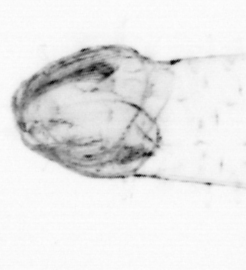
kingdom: Animalia
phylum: Chaetognatha
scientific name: Chaetognatha
